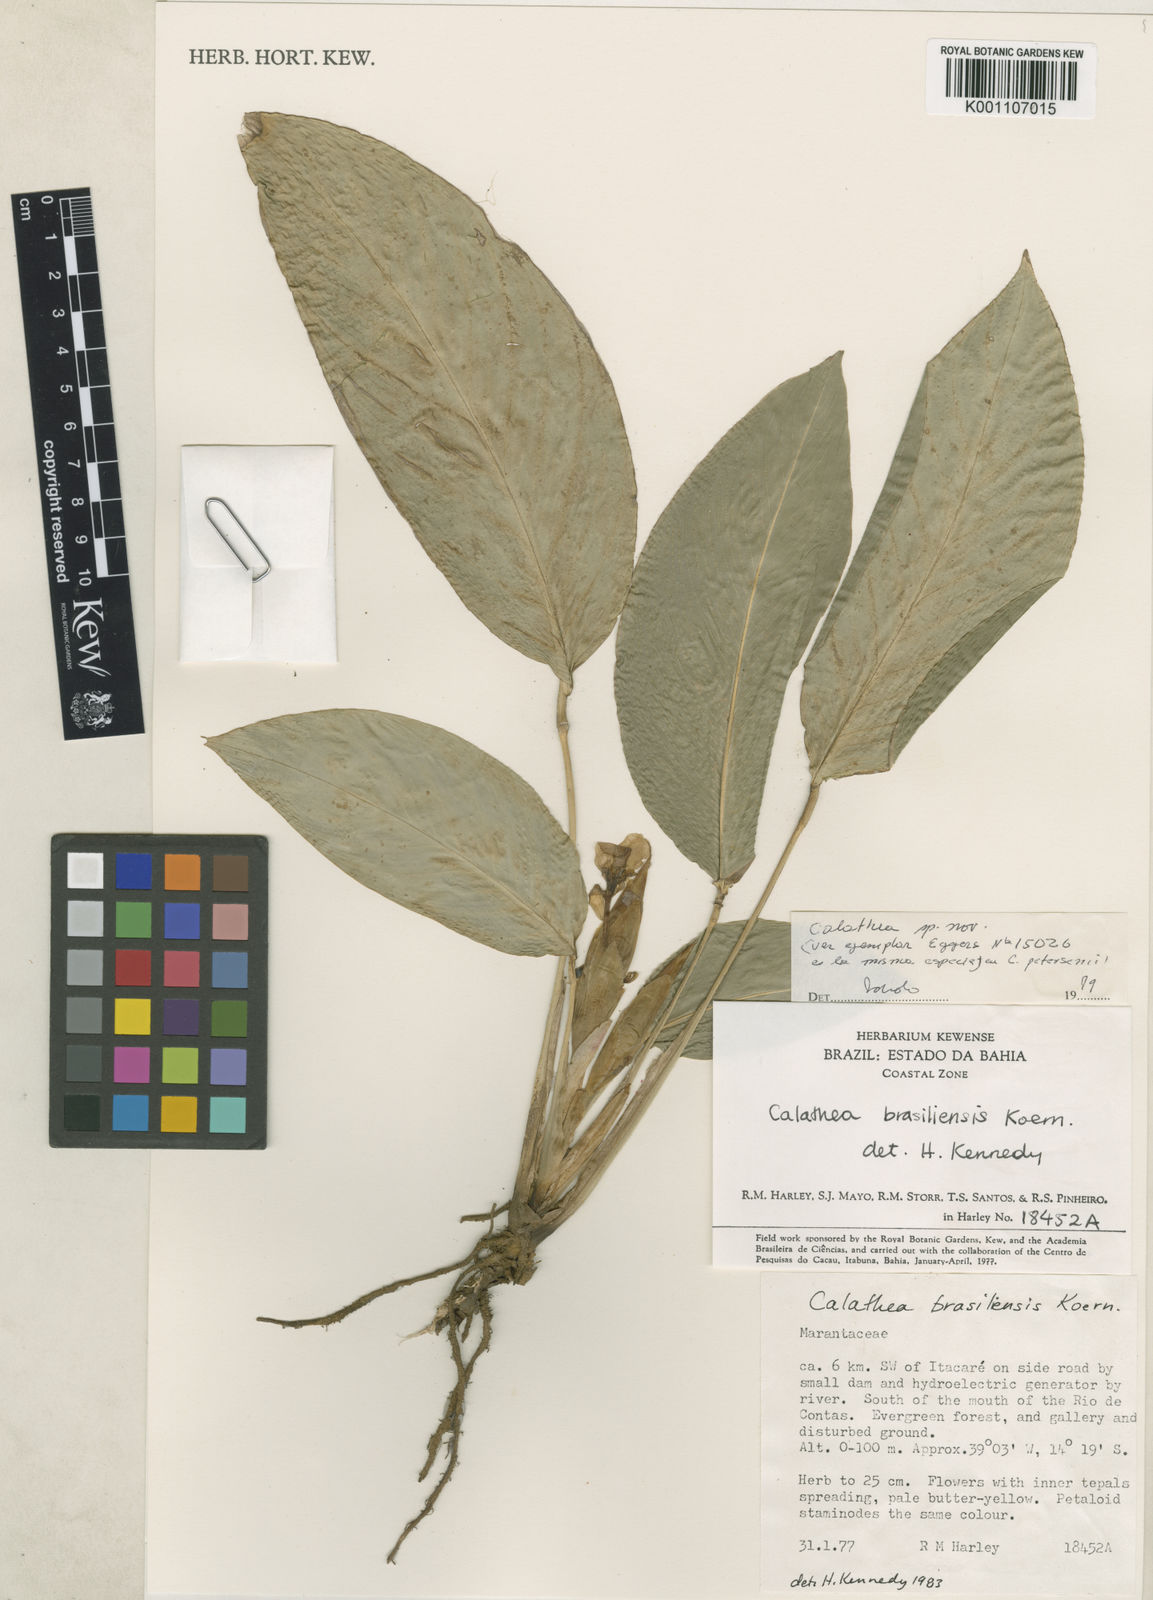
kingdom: Plantae
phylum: Tracheophyta
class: Liliopsida
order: Zingiberales
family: Marantaceae
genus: Calathea
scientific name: Calathea
